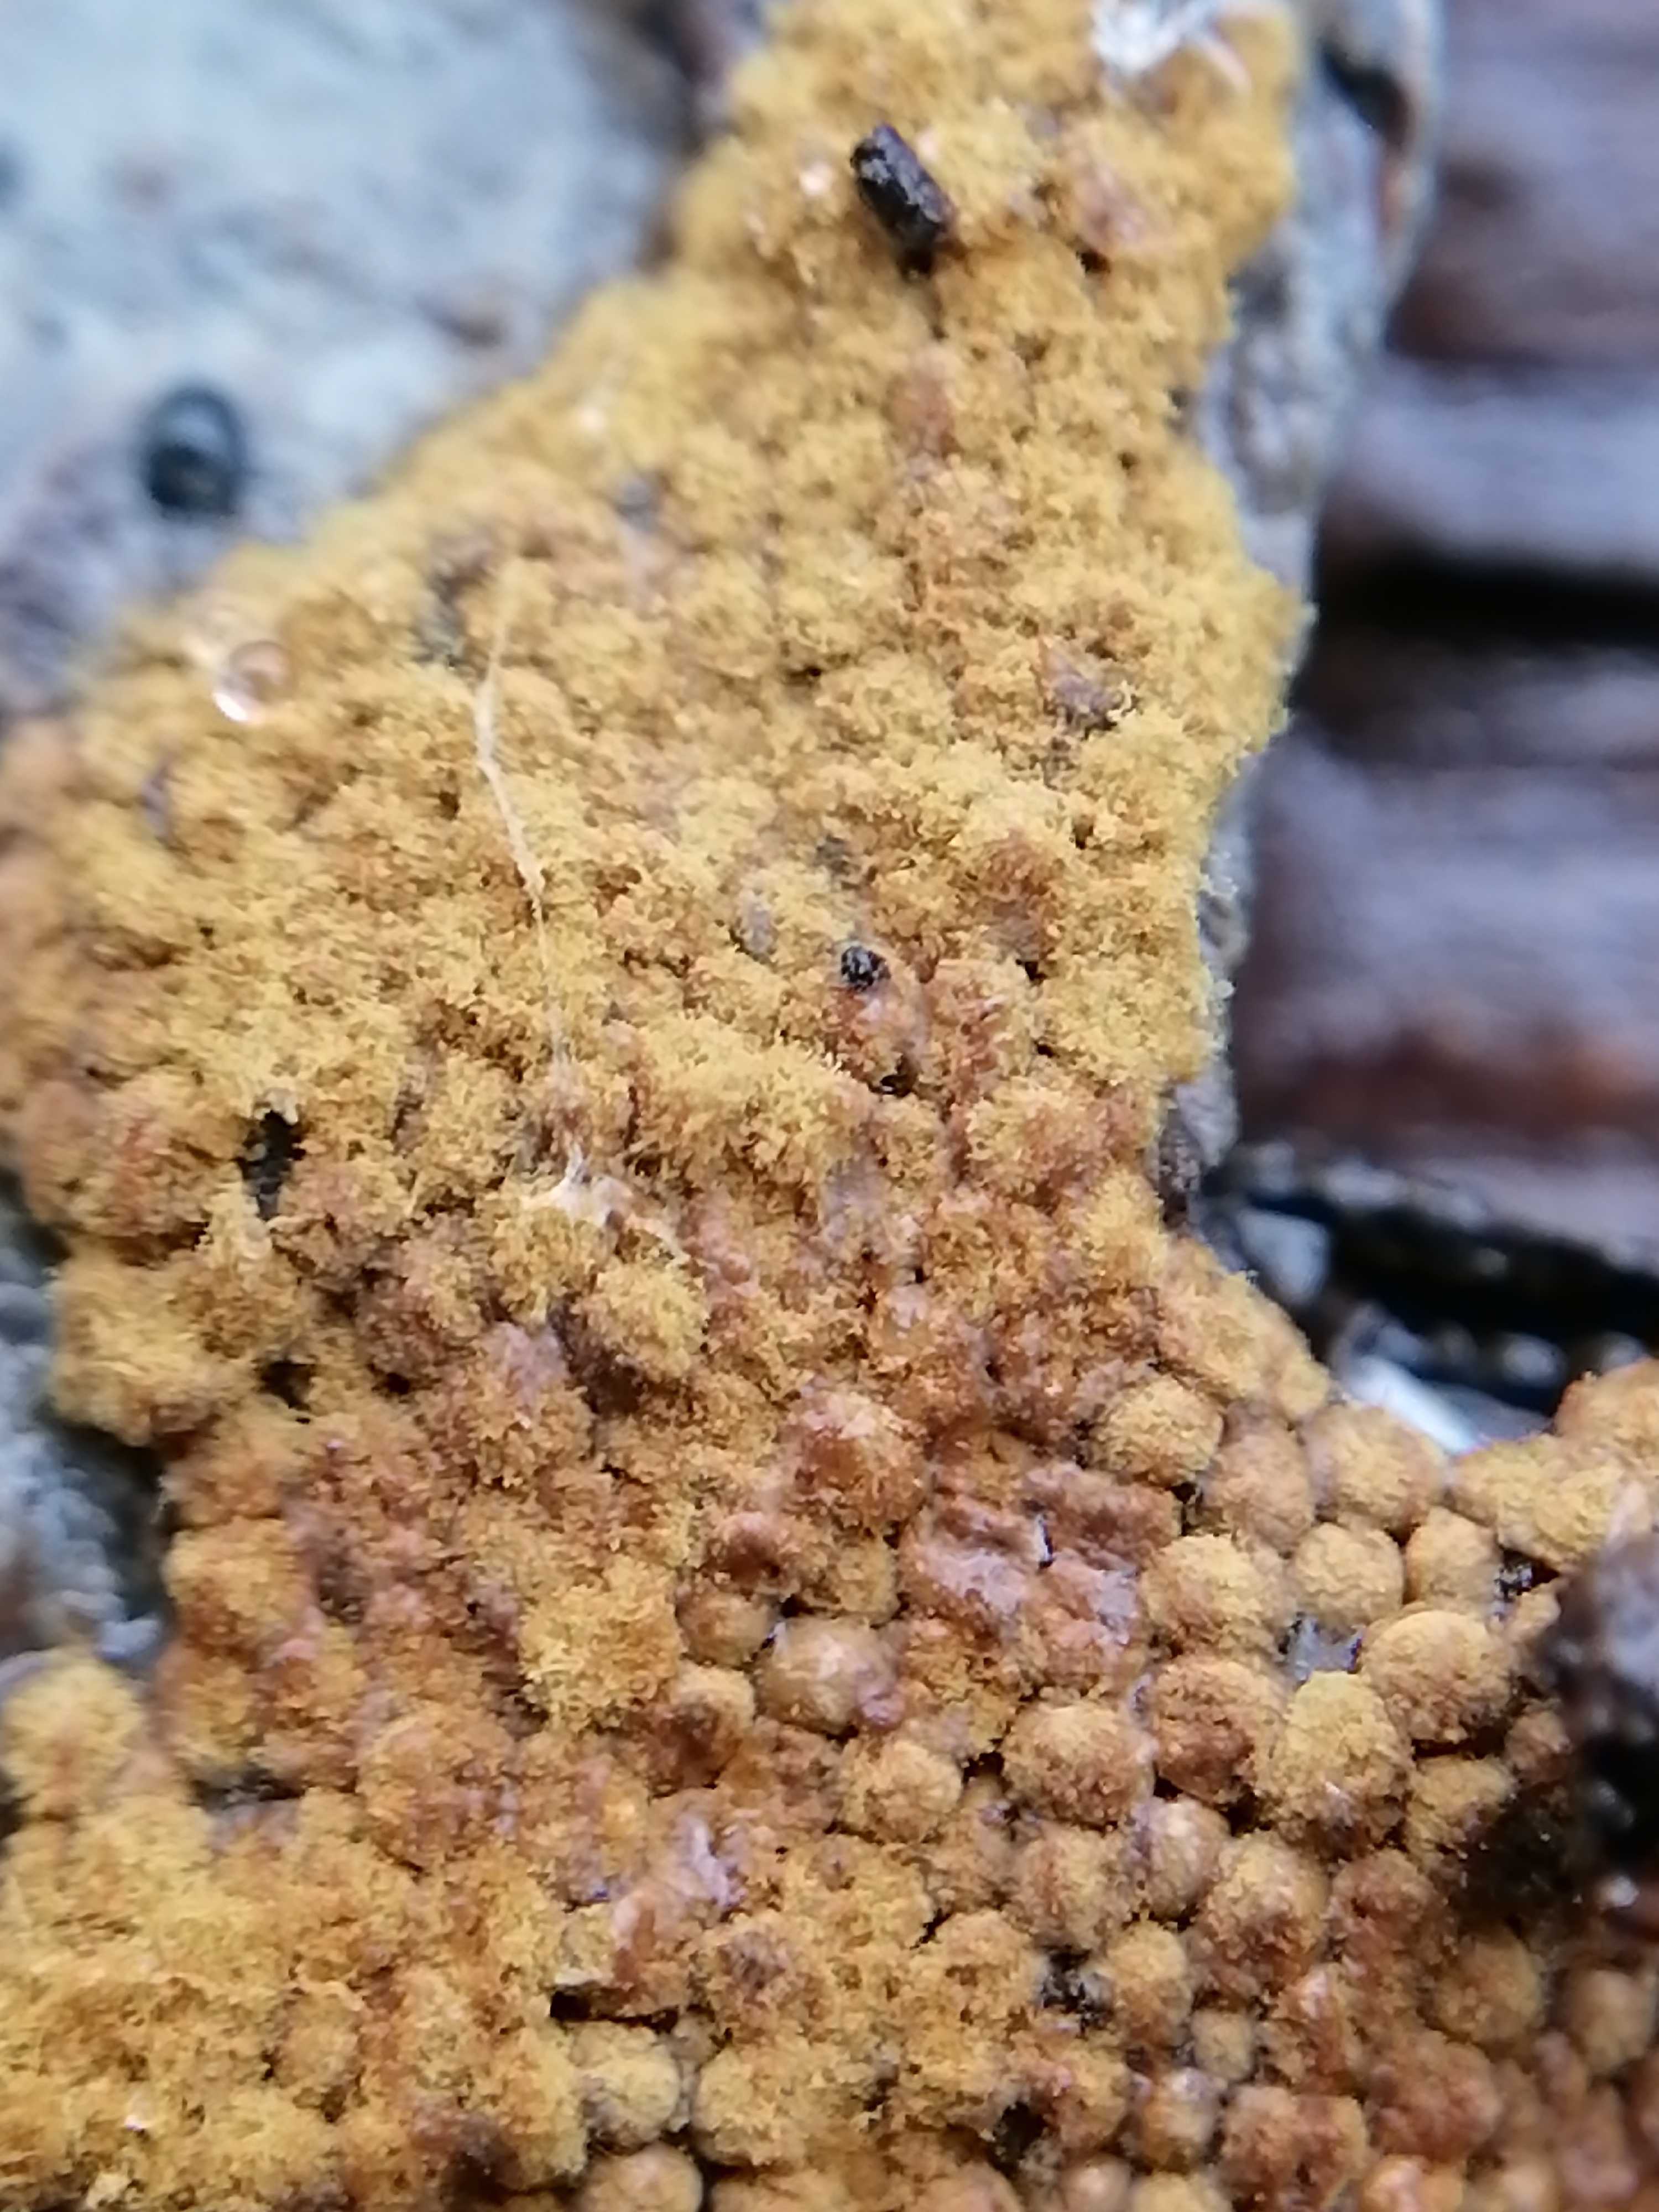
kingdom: Protozoa
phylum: Mycetozoa
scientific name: Mycetozoa
